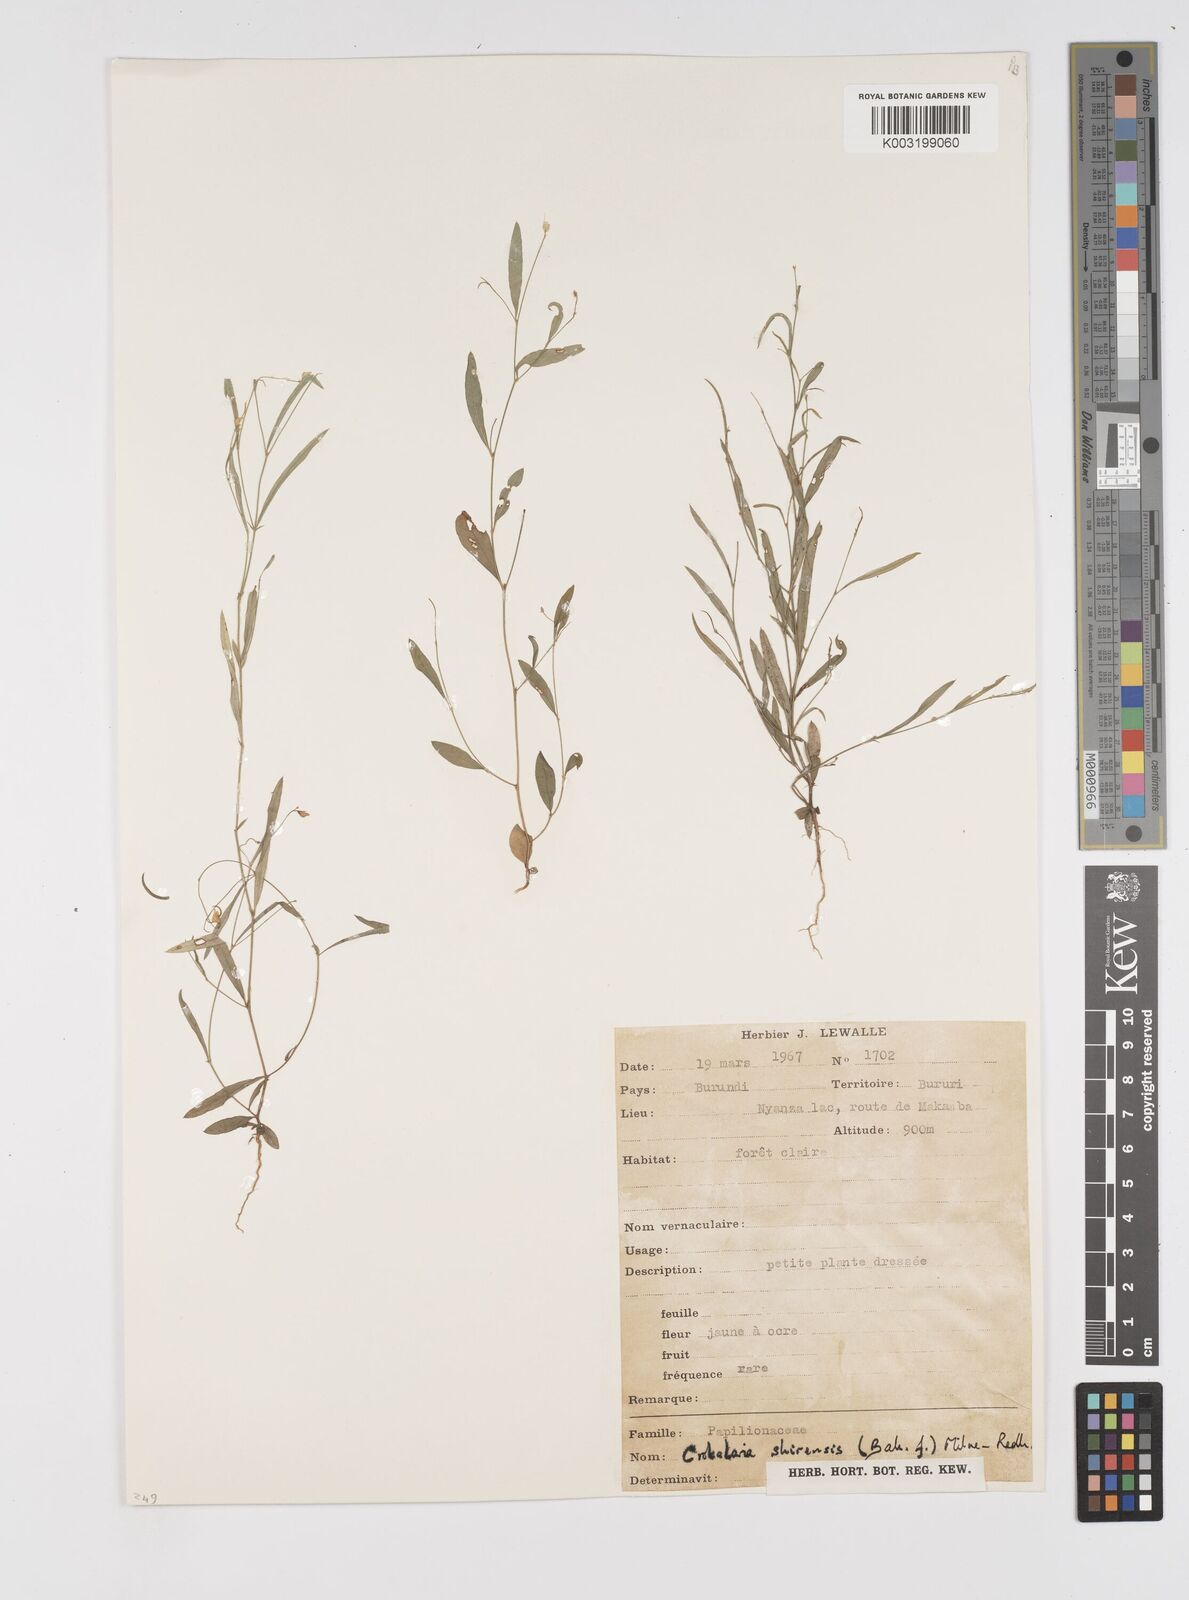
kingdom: Plantae
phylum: Tracheophyta
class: Magnoliopsida
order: Fabales
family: Fabaceae
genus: Crotalaria
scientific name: Crotalaria shirensis
